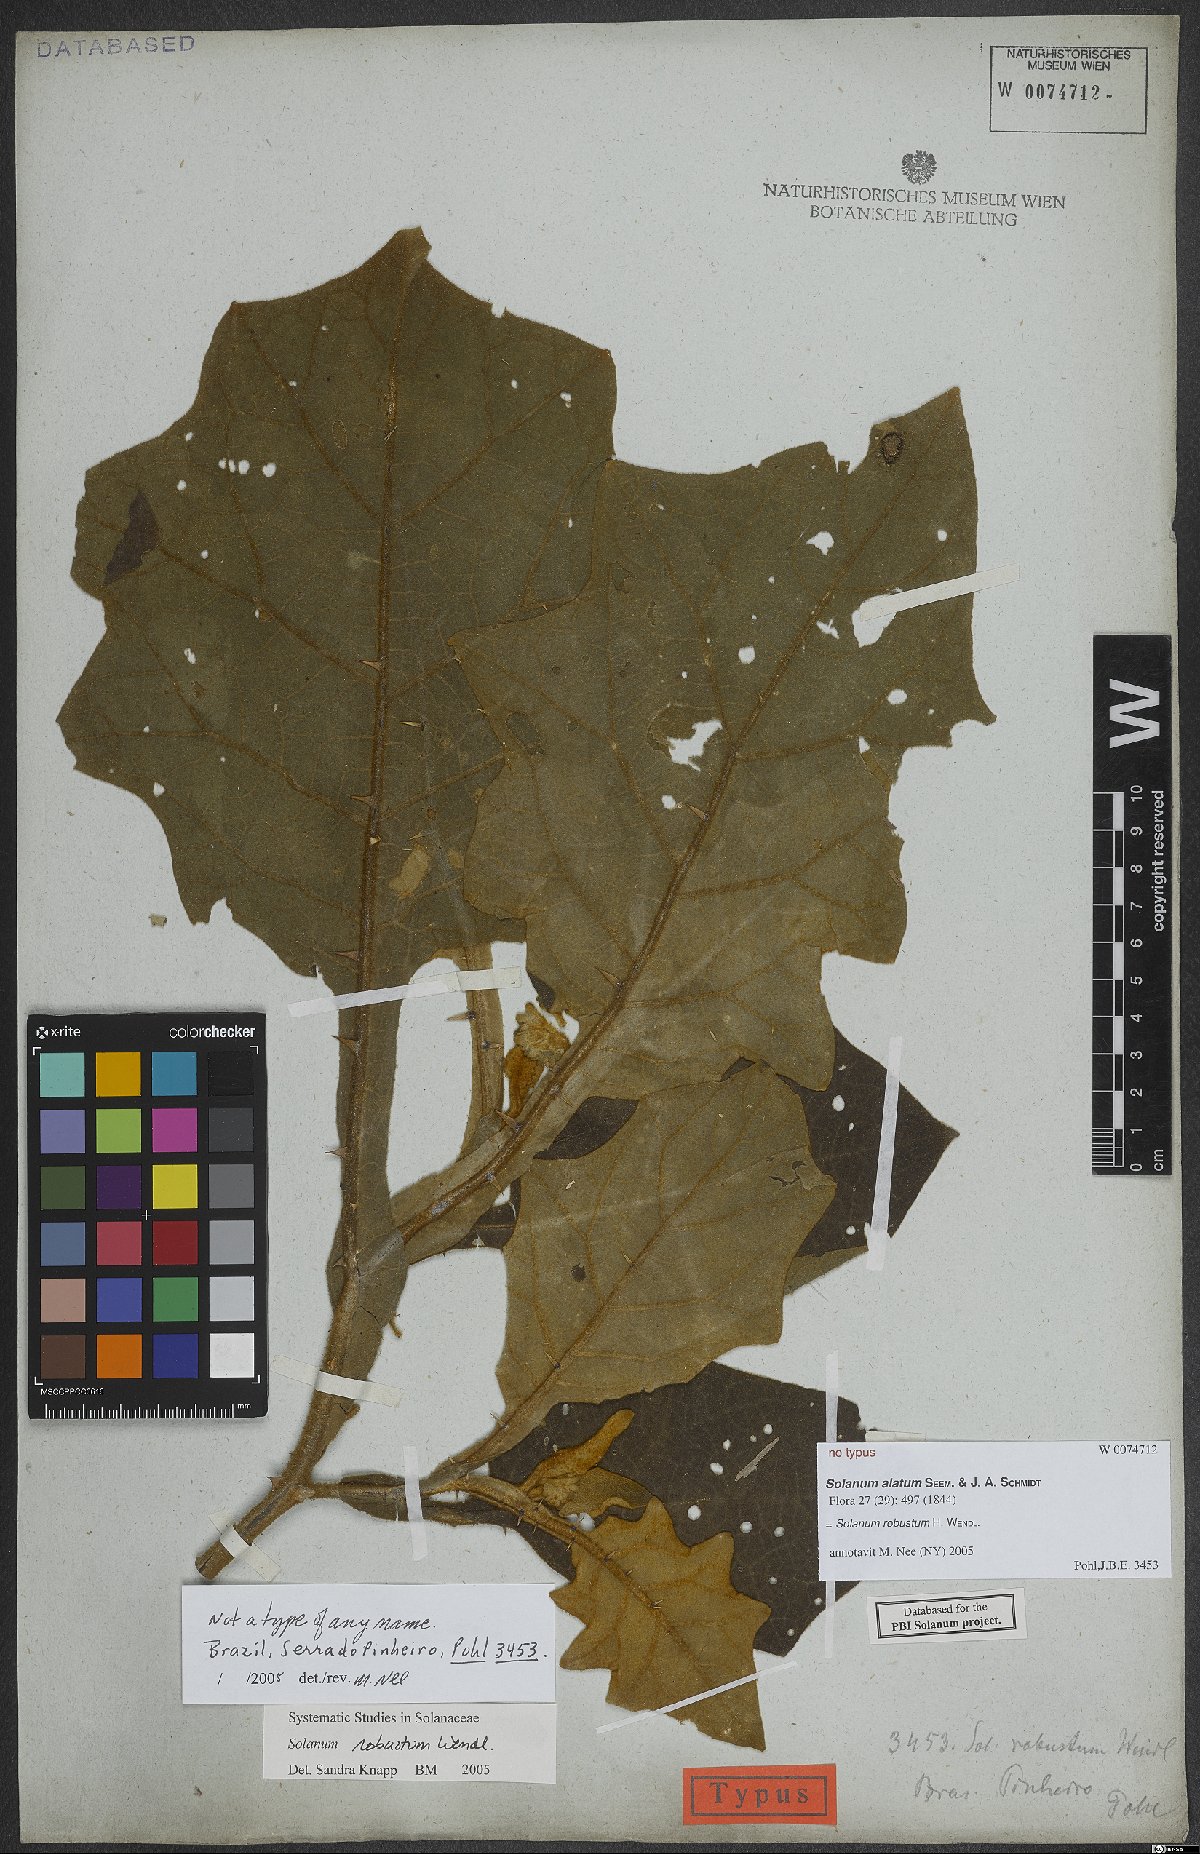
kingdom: Plantae
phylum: Tracheophyta
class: Magnoliopsida
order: Solanales
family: Solanaceae
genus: Solanum
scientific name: Solanum robustum
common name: Shrubby nightshade
